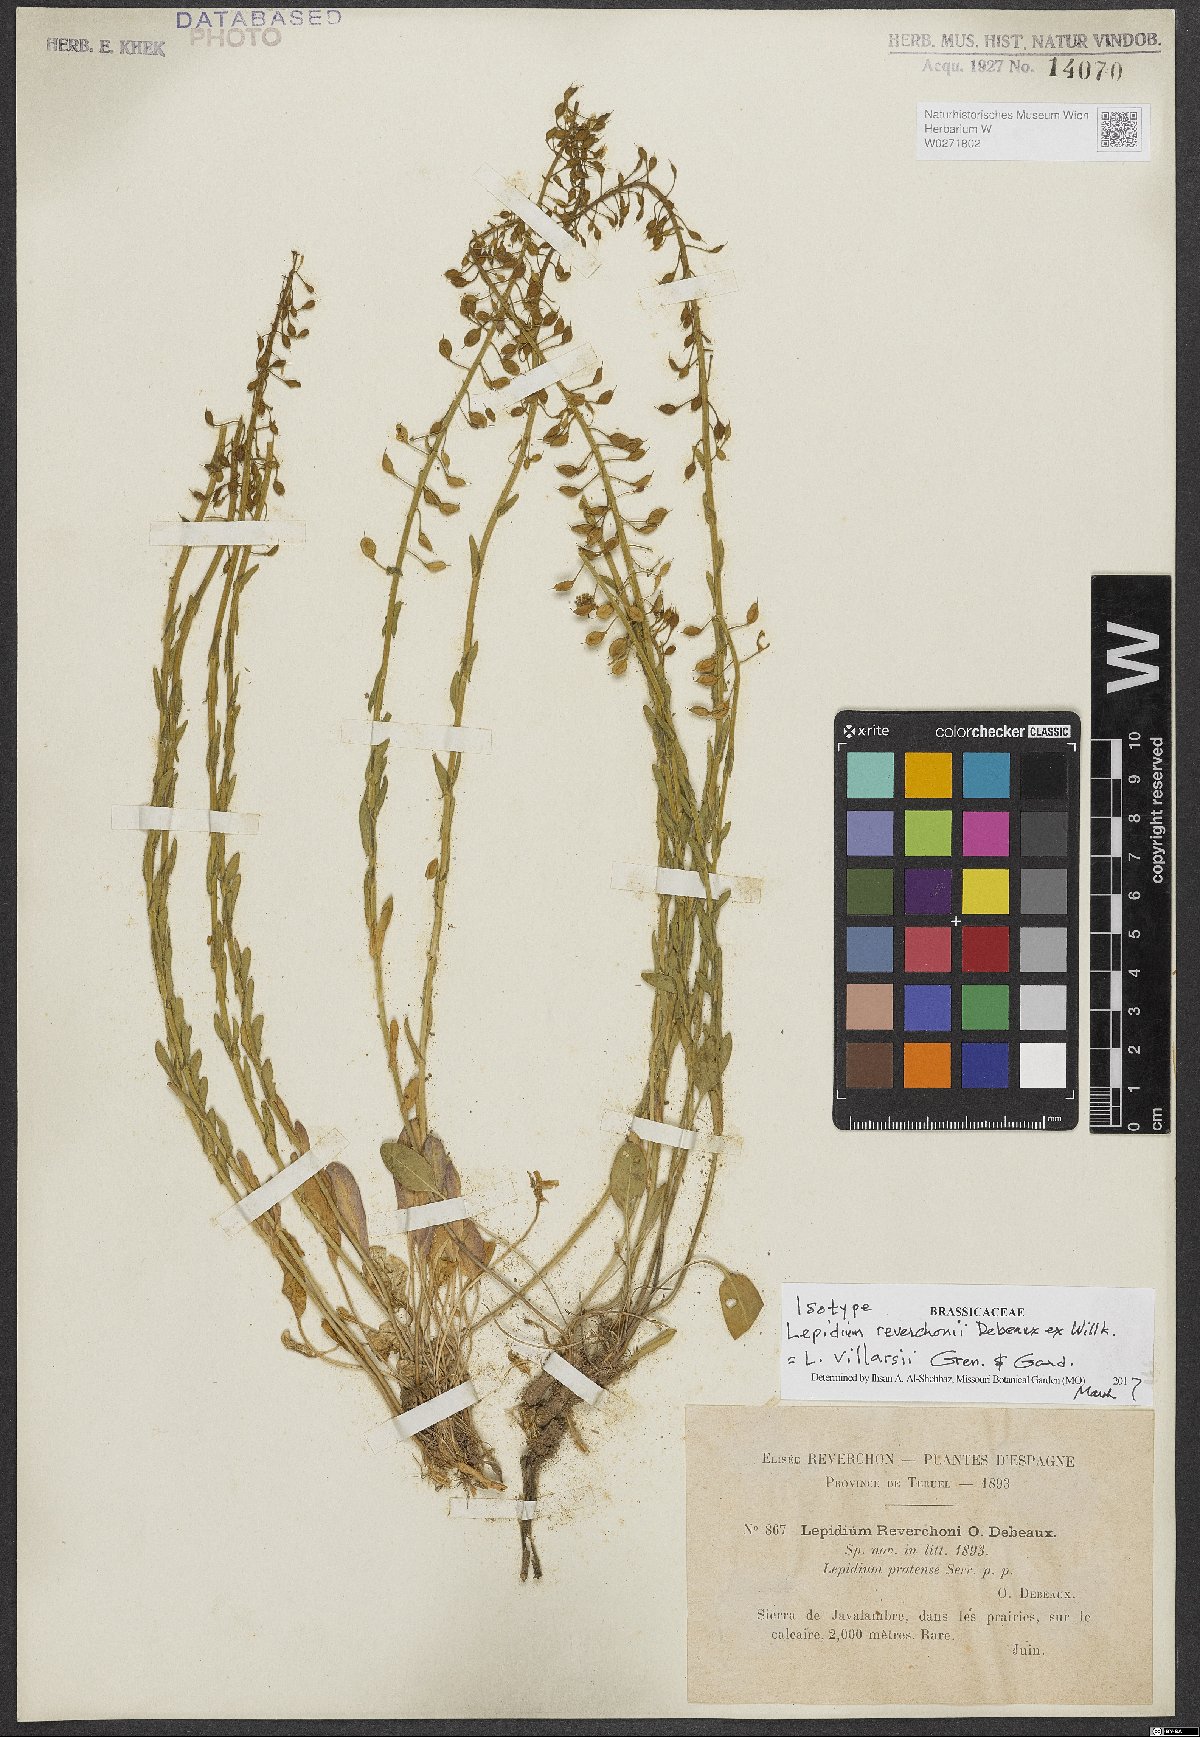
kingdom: Plantae
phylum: Tracheophyta
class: Magnoliopsida
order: Brassicales
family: Brassicaceae
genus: Lepidium
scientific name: Lepidium villarsii
